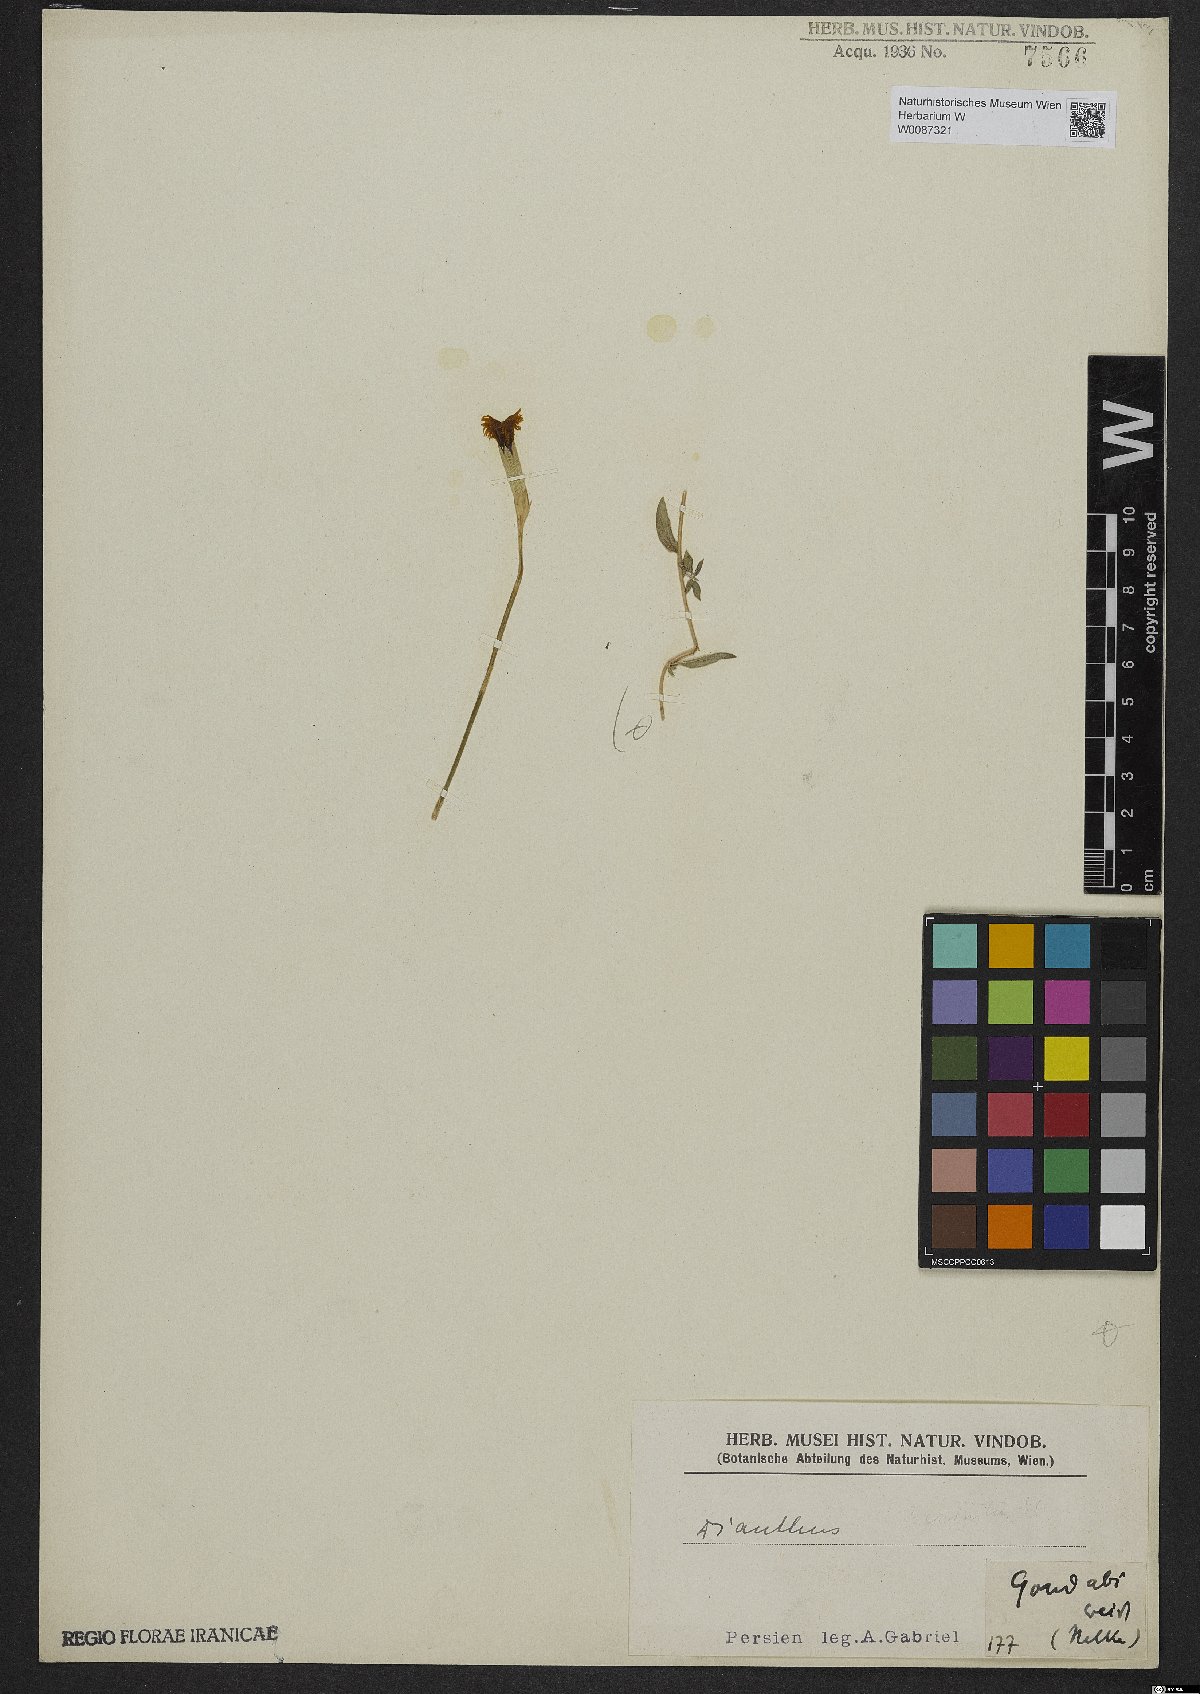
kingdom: Plantae
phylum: Tracheophyta
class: Magnoliopsida
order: Caryophyllales
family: Caryophyllaceae
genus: Dianthus
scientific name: Dianthus
